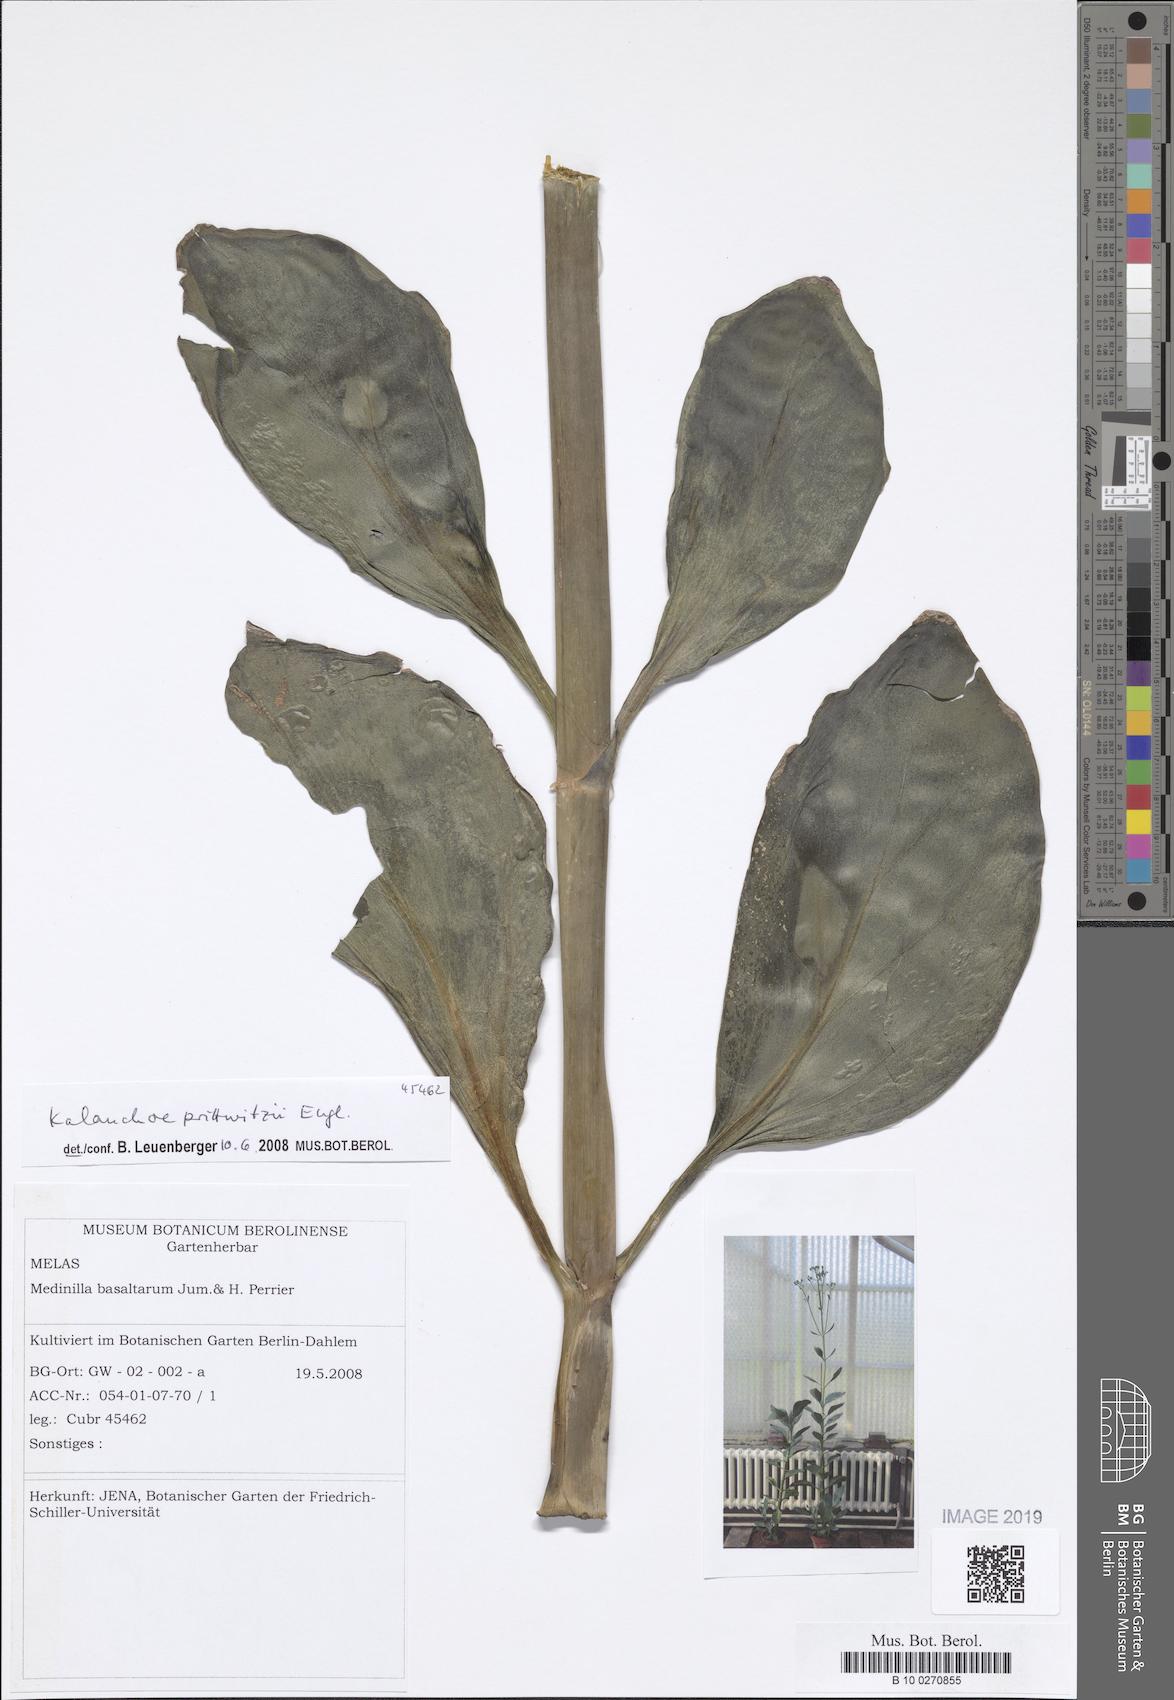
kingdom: Plantae
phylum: Tracheophyta
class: Magnoliopsida
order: Saxifragales
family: Crassulaceae
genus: Kalanchoe
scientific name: Kalanchoe prittwitzii
